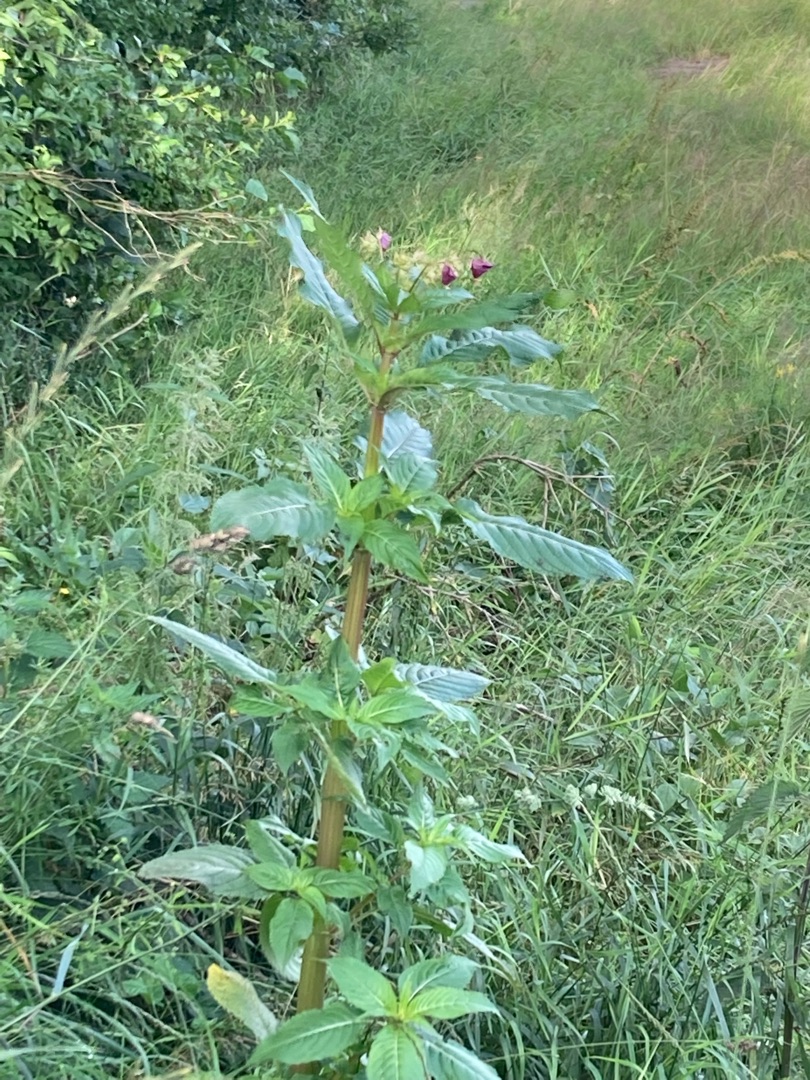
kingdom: Plantae
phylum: Tracheophyta
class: Magnoliopsida
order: Ericales
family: Balsaminaceae
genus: Impatiens
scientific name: Impatiens glandulifera
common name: Kæmpe-balsamin
